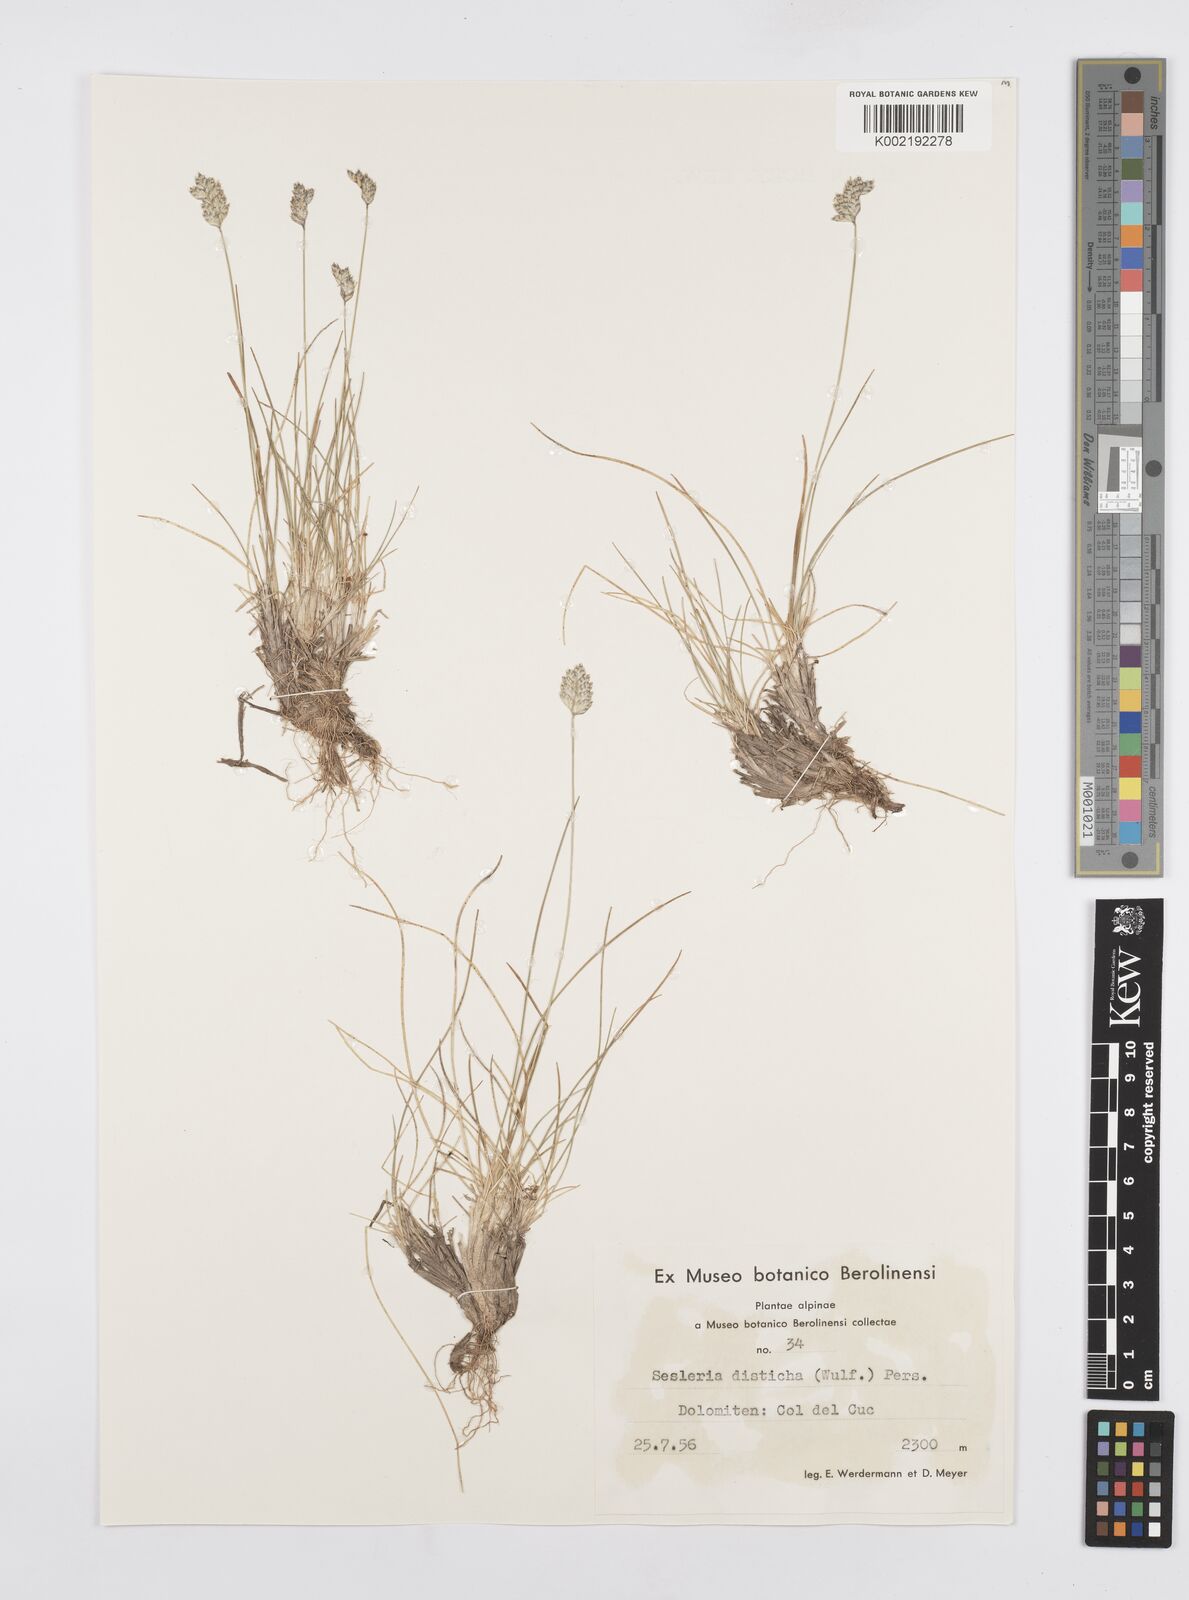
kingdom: Plantae
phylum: Tracheophyta
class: Liliopsida
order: Poales
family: Poaceae
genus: Oreochloa
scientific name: Oreochloa disticha
